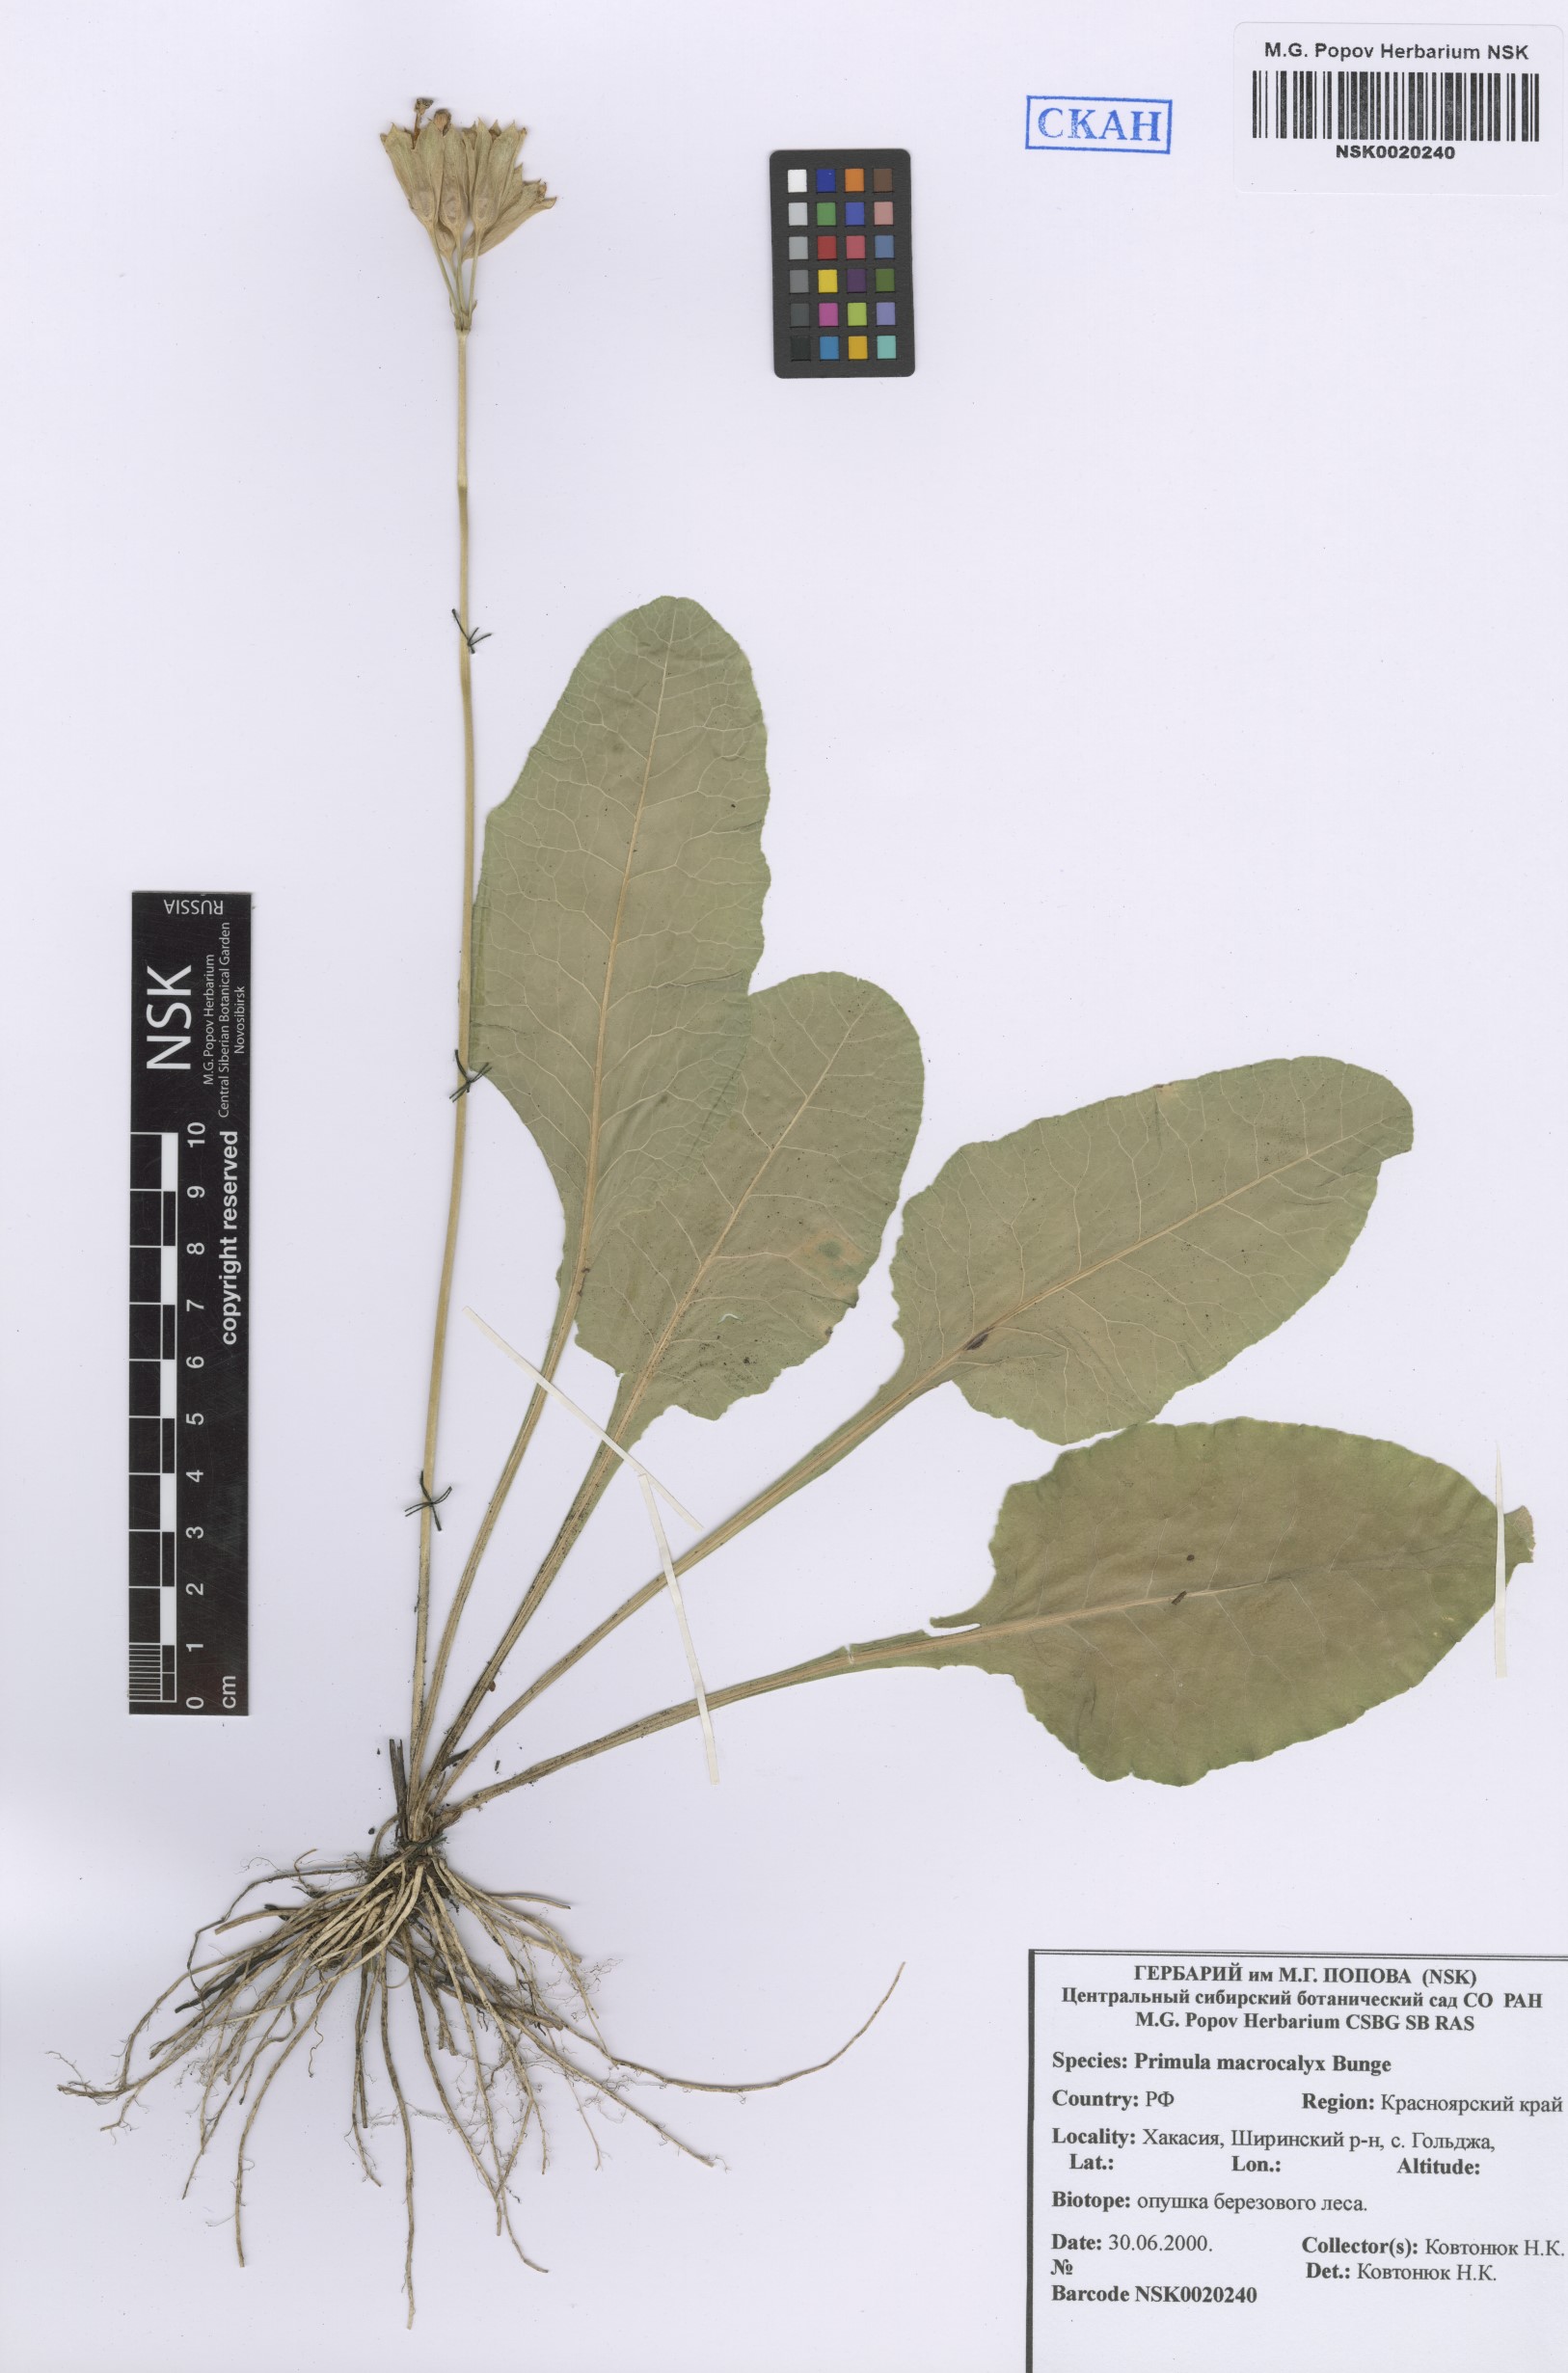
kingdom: Plantae
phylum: Tracheophyta
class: Magnoliopsida
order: Ericales
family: Primulaceae
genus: Primula
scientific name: Primula veris
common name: Cowslip
